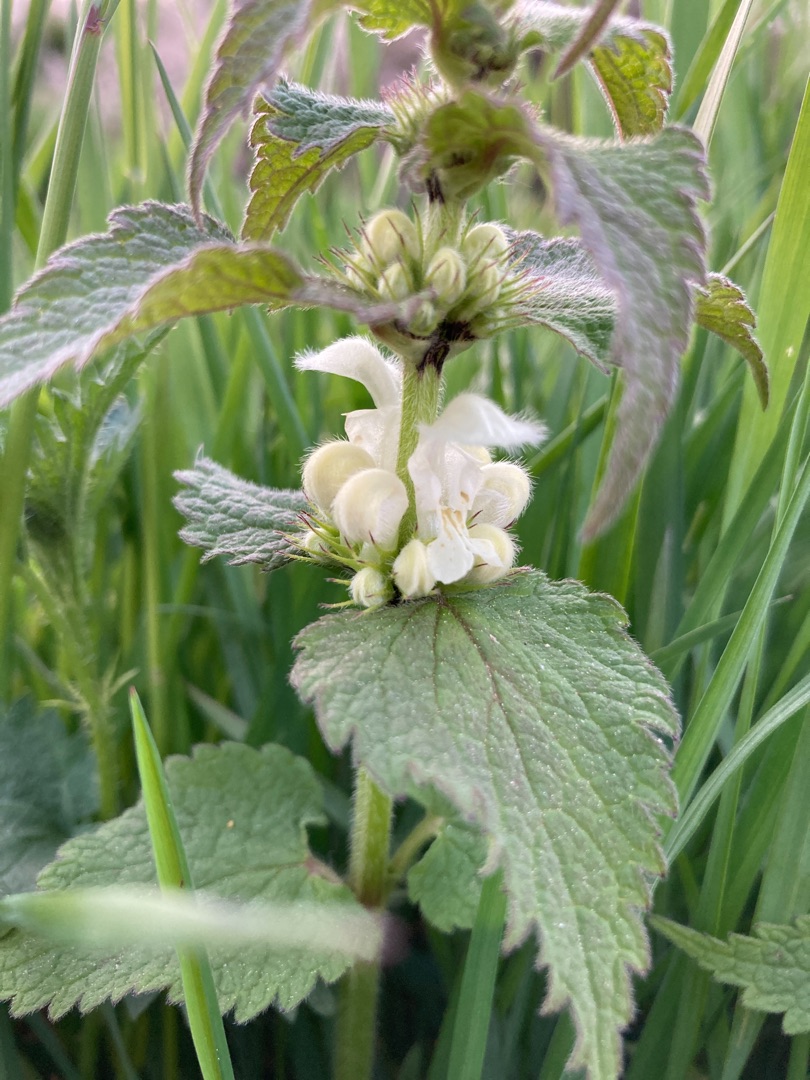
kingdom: Plantae
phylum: Tracheophyta
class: Magnoliopsida
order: Lamiales
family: Lamiaceae
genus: Lamium
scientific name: Lamium album
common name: Døvnælde
